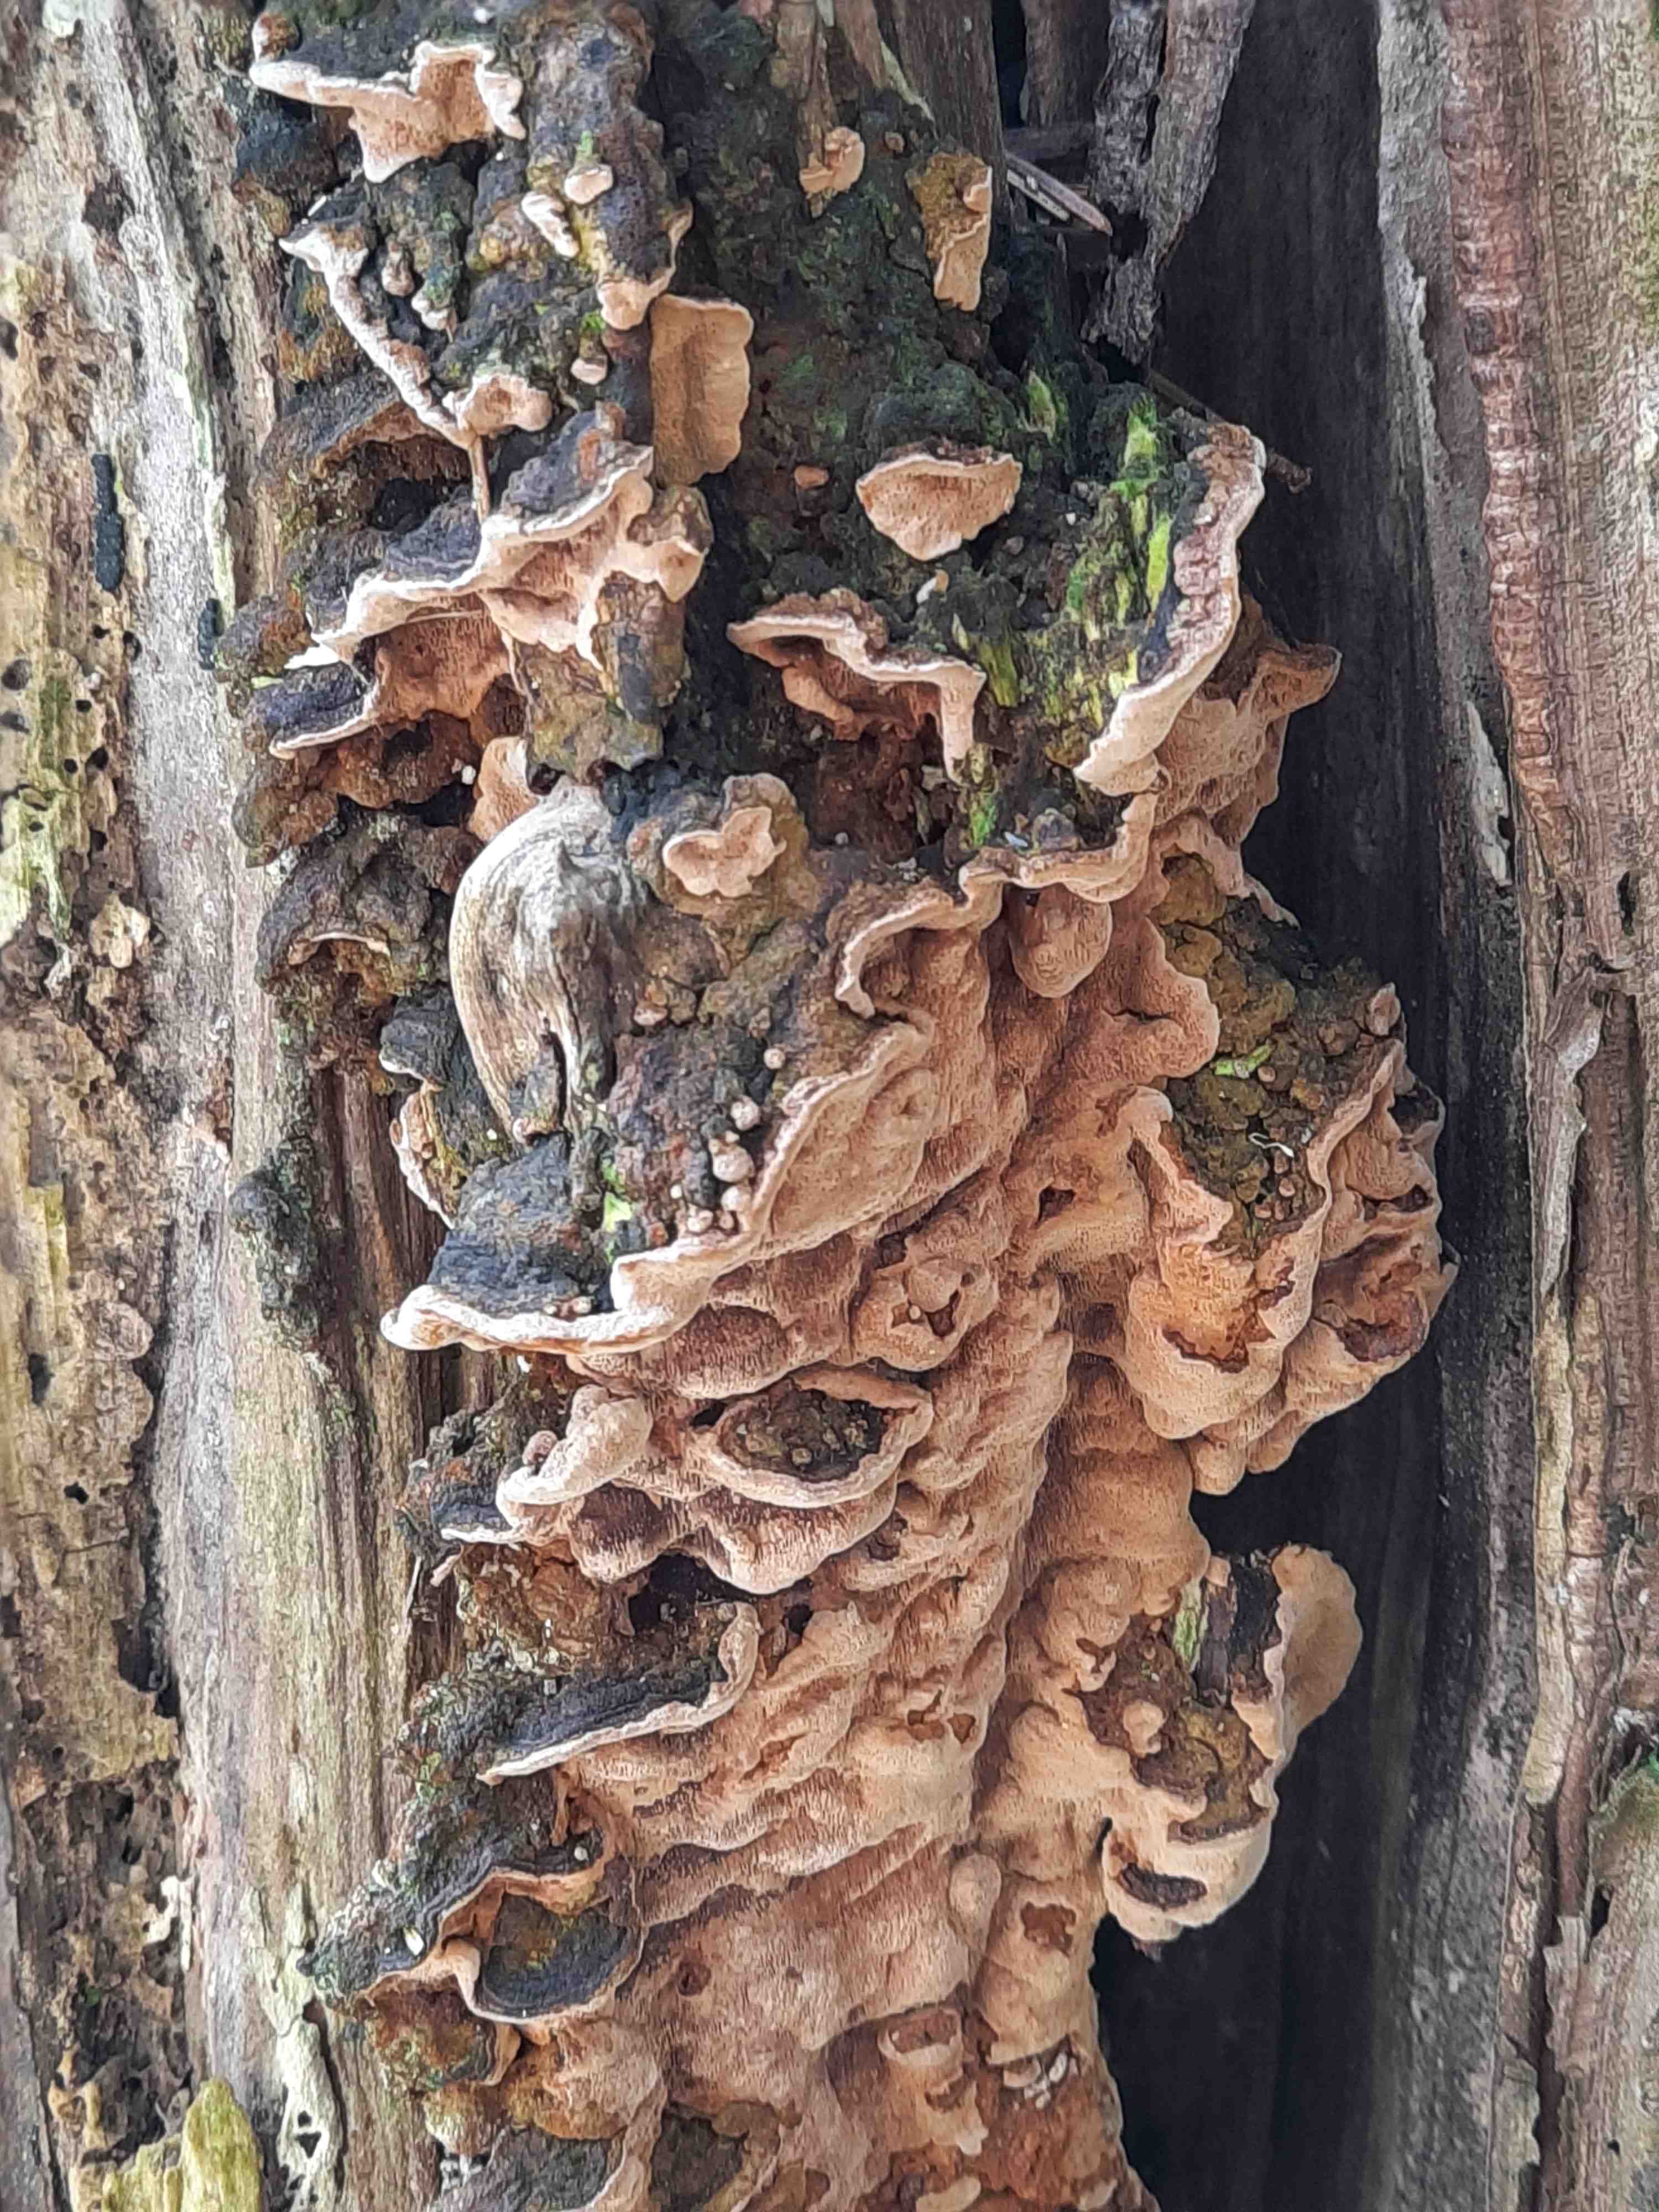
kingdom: Fungi
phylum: Basidiomycota
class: Agaricomycetes
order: Hymenochaetales
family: Hymenochaetaceae
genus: Phellinopsis
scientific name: Phellinopsis conchata
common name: pile-ildporesvamp
